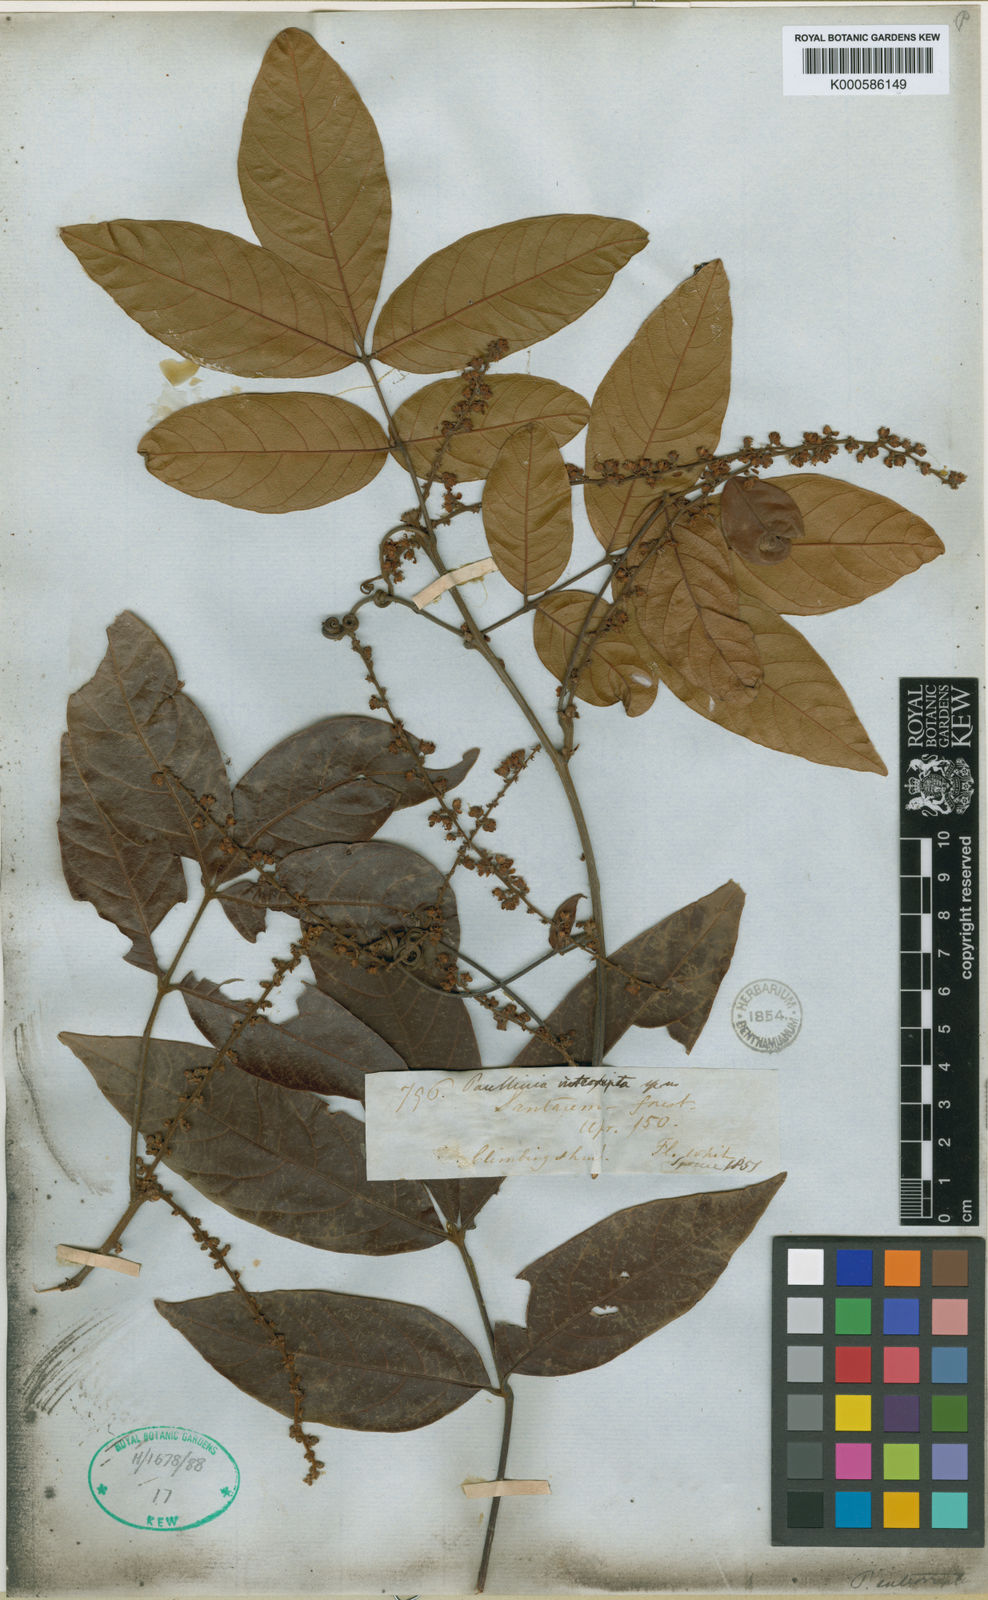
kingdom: Plantae
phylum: Tracheophyta
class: Magnoliopsida
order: Sapindales
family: Sapindaceae
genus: Paullinia
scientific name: Paullinia interrupta
